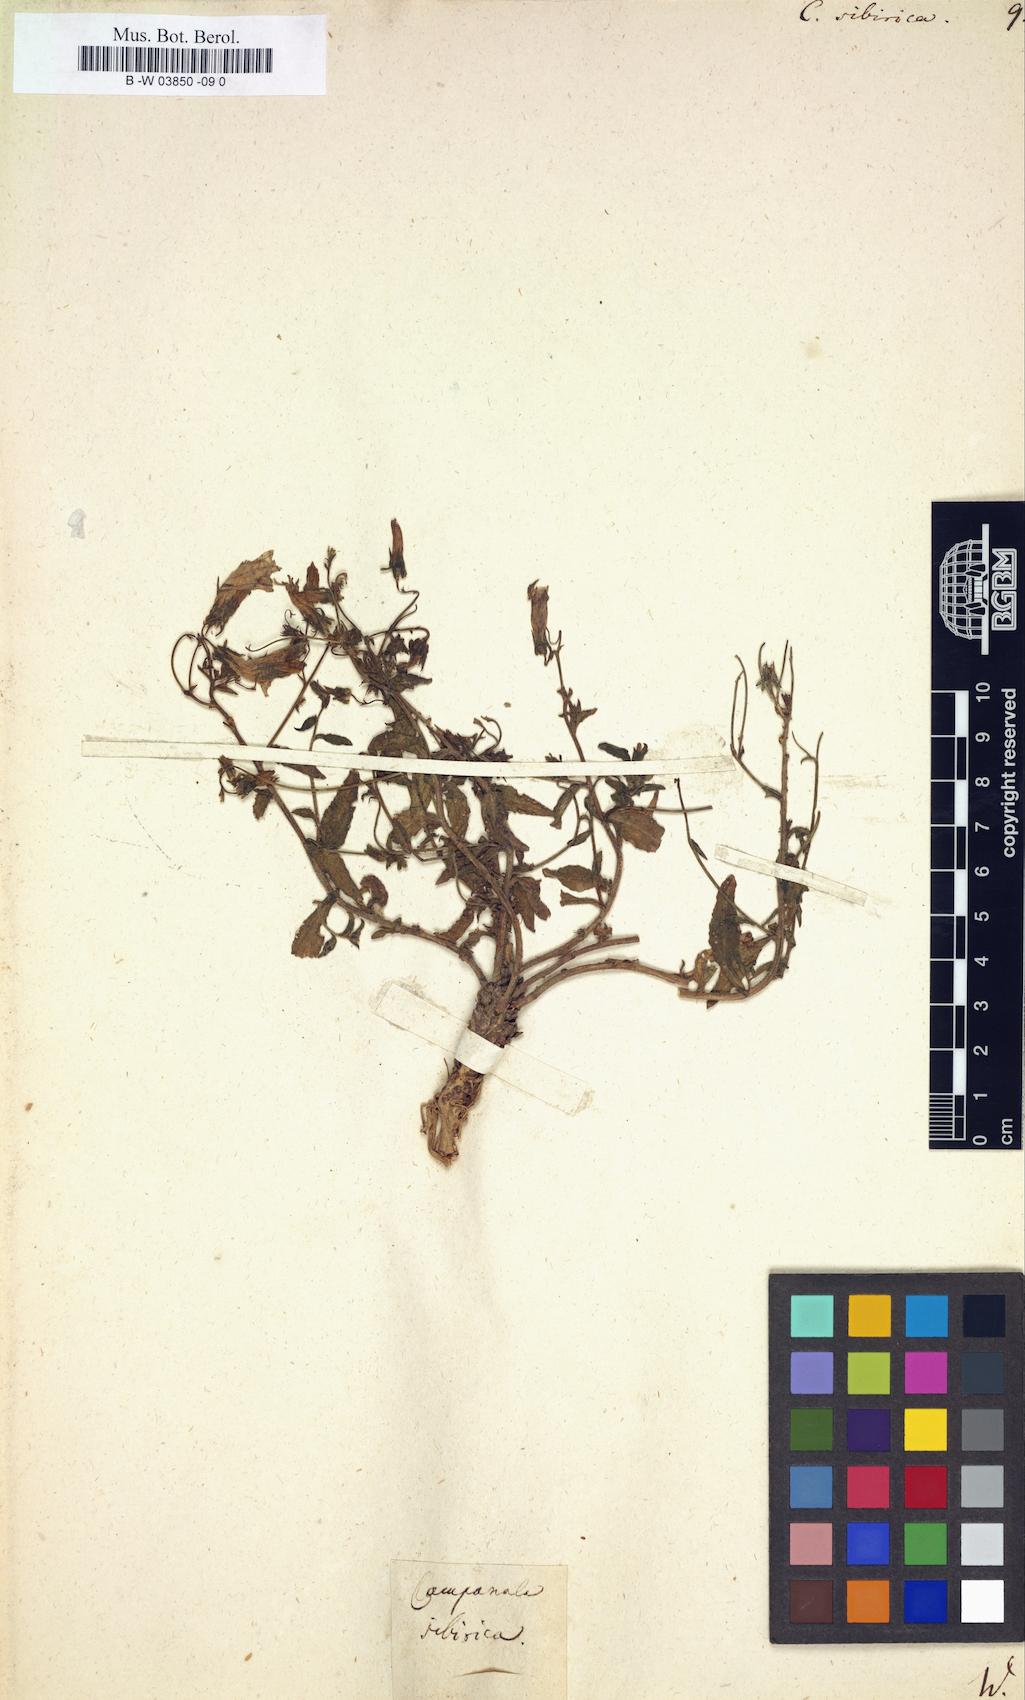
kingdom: Plantae
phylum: Tracheophyta
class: Magnoliopsida
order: Asterales
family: Campanulaceae
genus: Campanula
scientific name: Campanula sibirica
